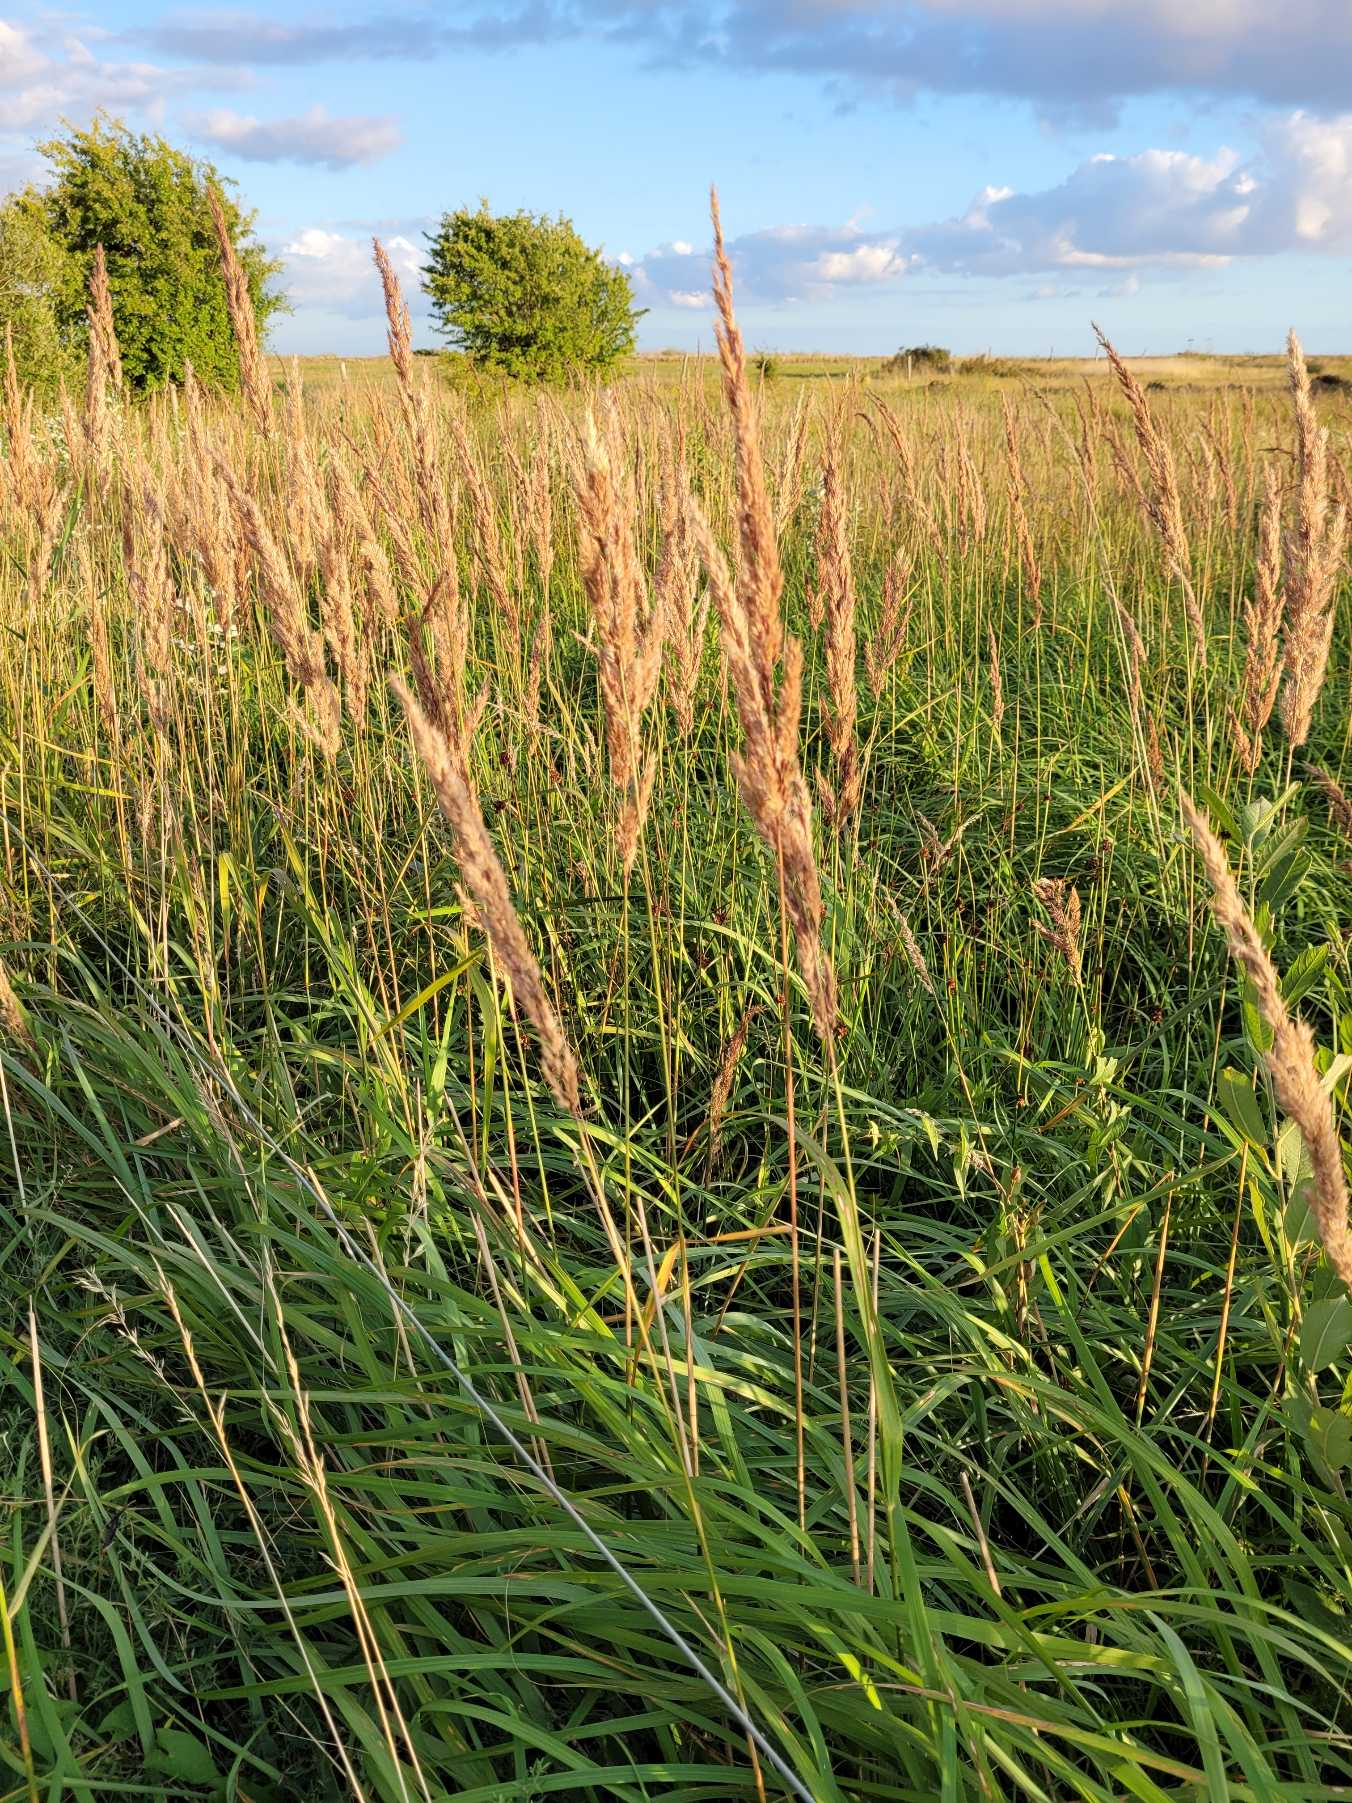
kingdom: Plantae
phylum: Tracheophyta
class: Liliopsida
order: Poales
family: Poaceae
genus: Calamagrostis
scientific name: Calamagrostis epigejos
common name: Bjerg-rørhvene
